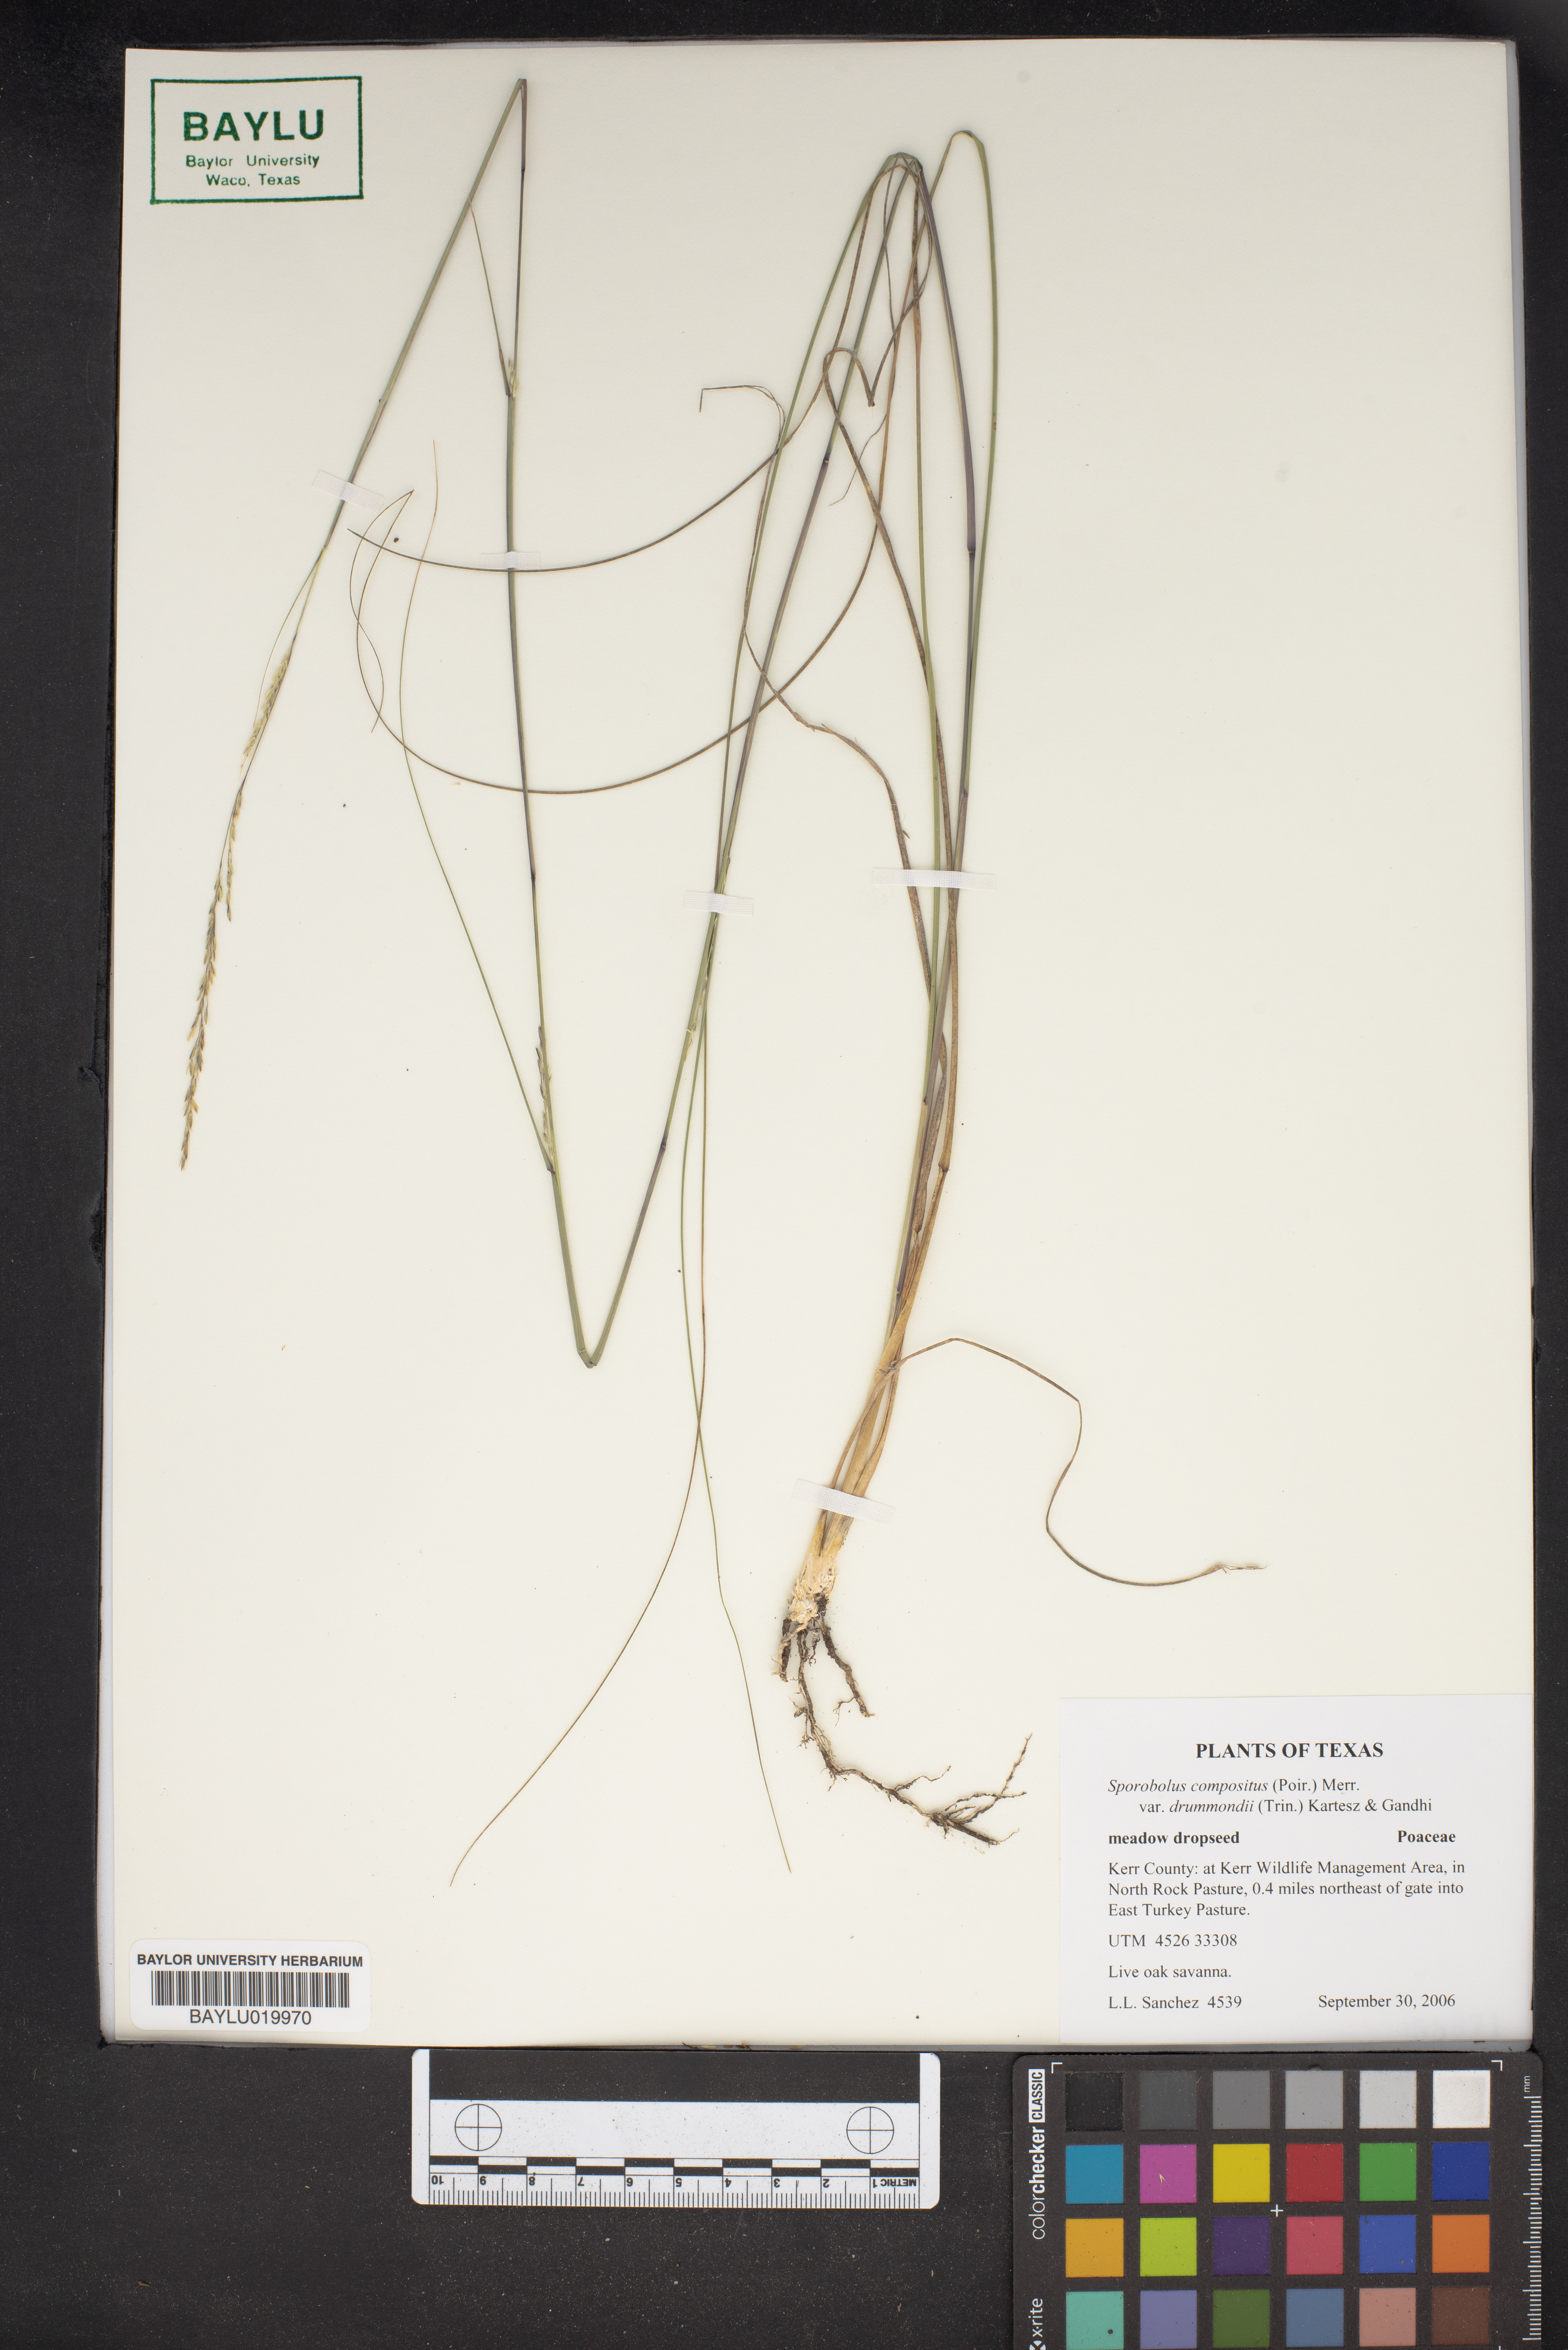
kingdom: Plantae
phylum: Tracheophyta
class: Liliopsida
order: Poales
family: Poaceae
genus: Sporobolus
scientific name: Sporobolus compositus
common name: Rough dropseed
